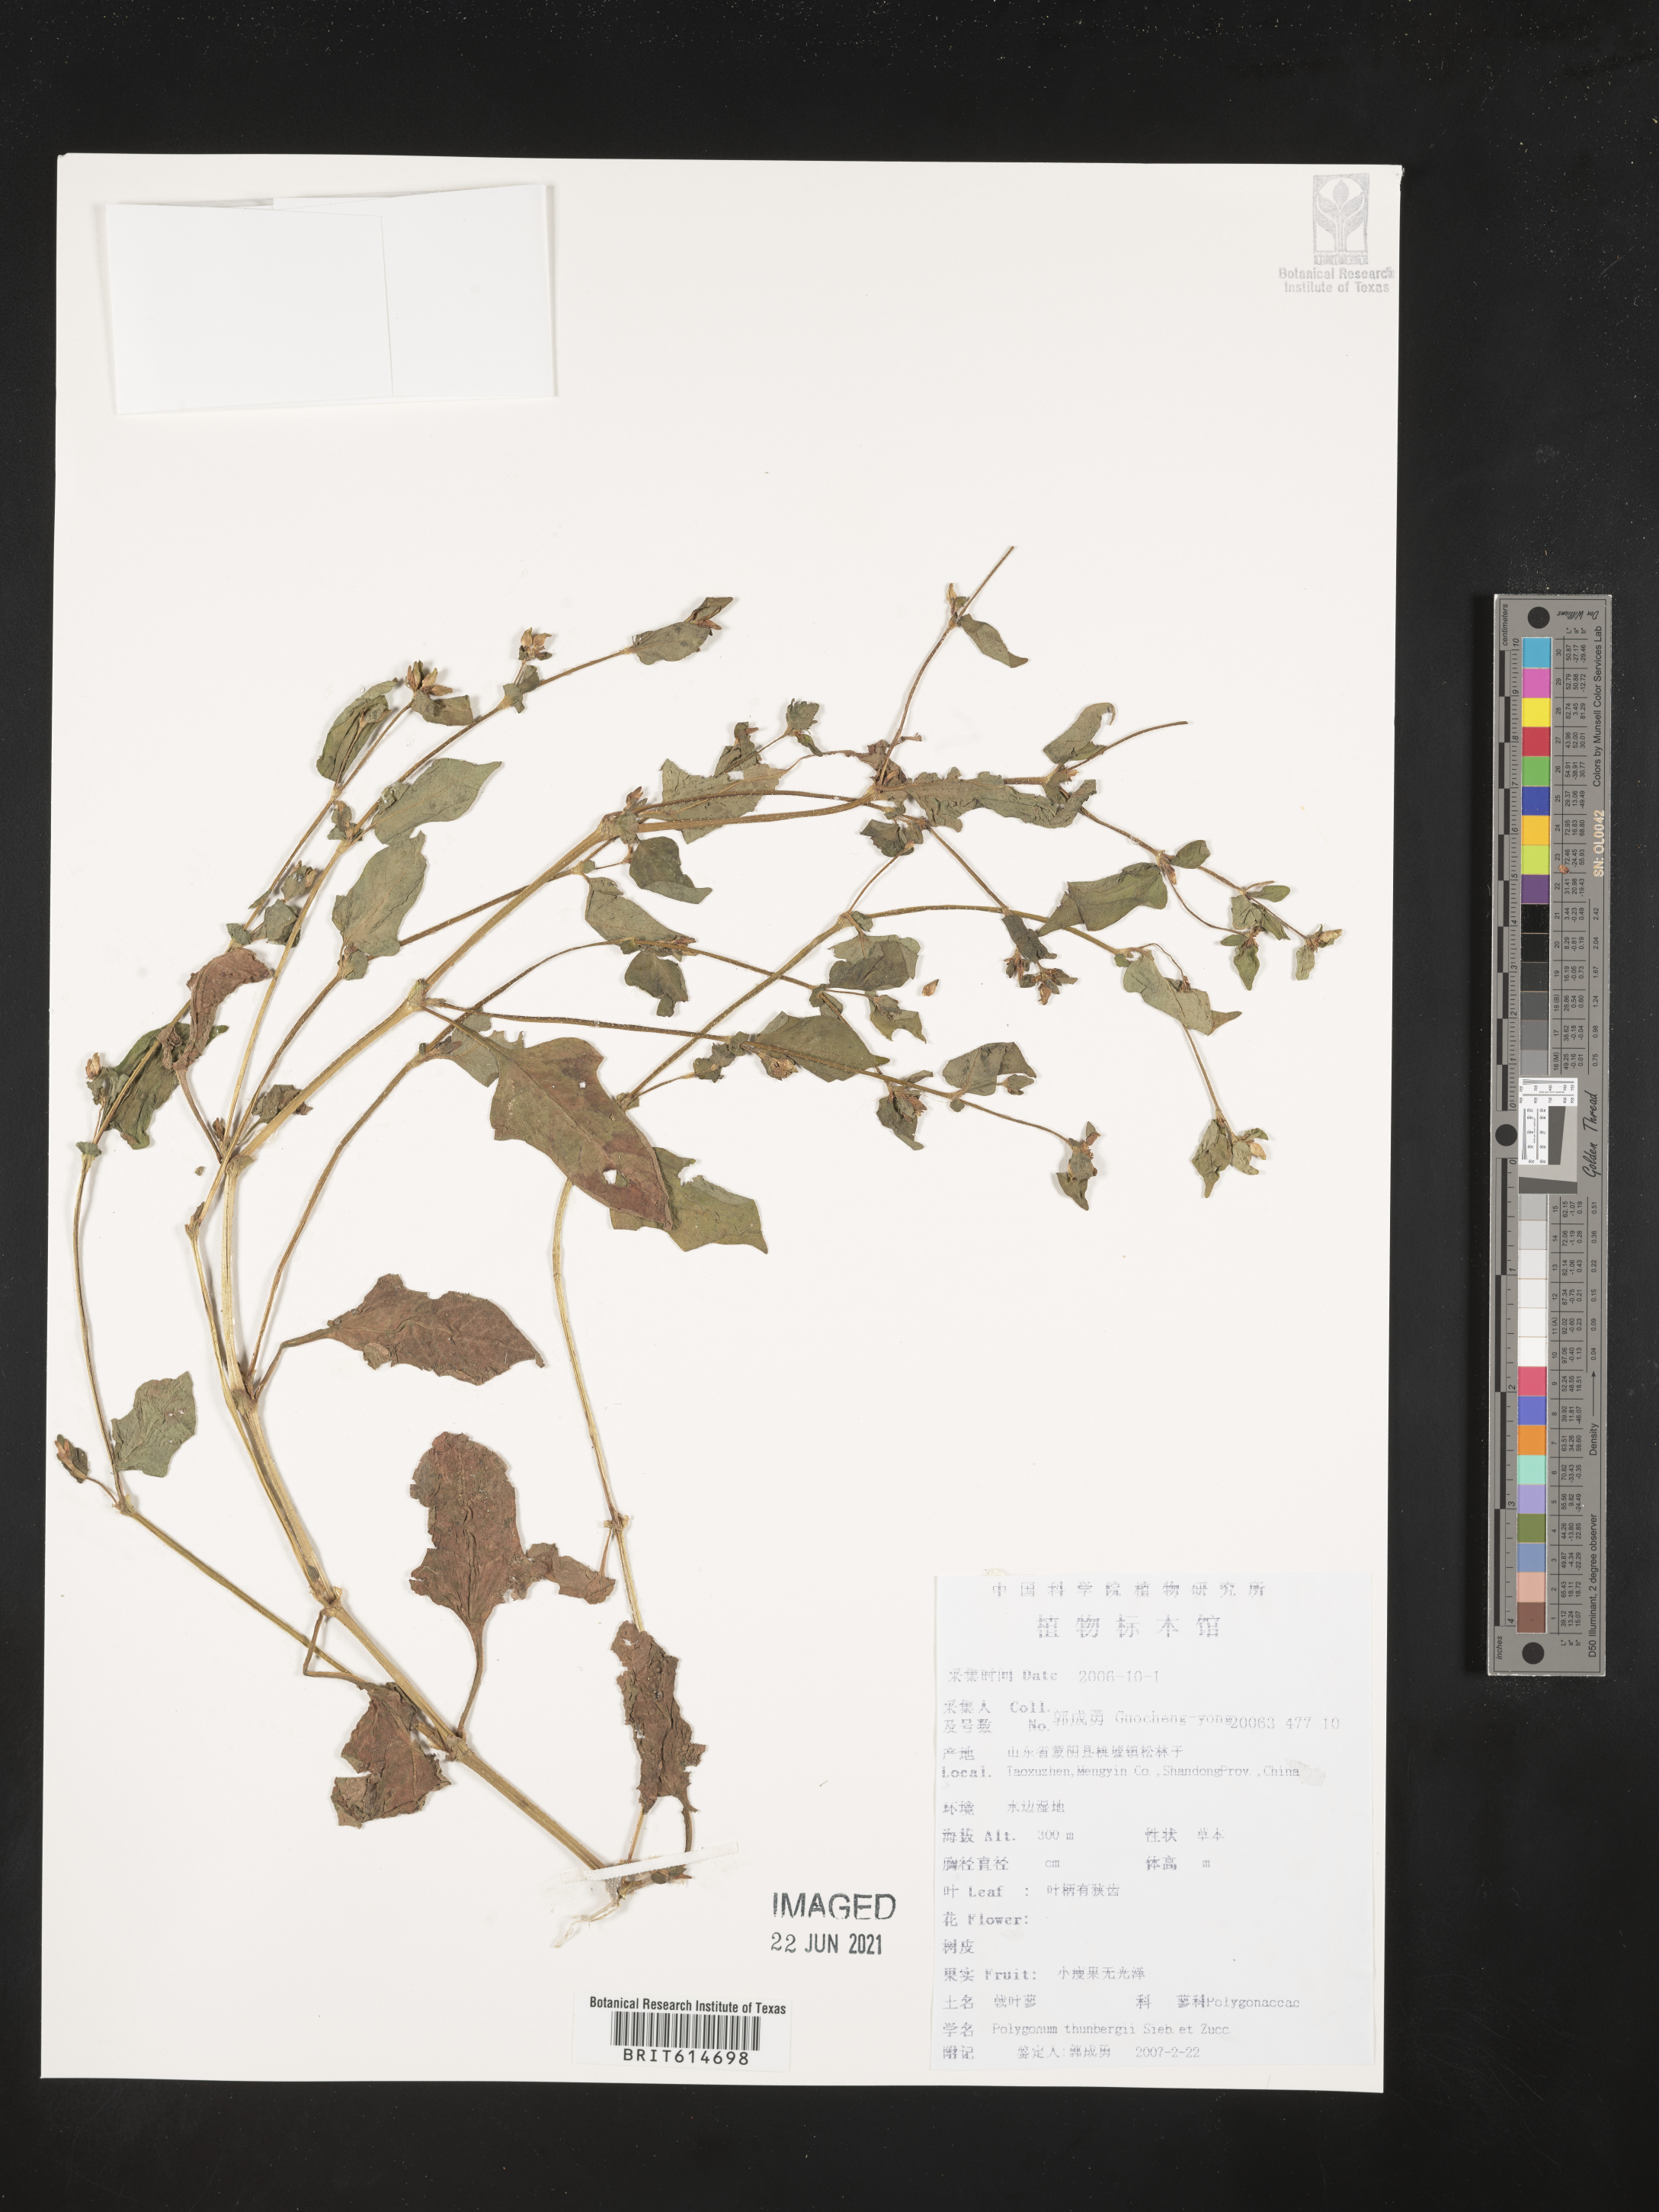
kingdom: Plantae
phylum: Tracheophyta
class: Magnoliopsida
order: Caryophyllales
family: Polygonaceae
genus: Persicaria
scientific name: Persicaria thunbergii
